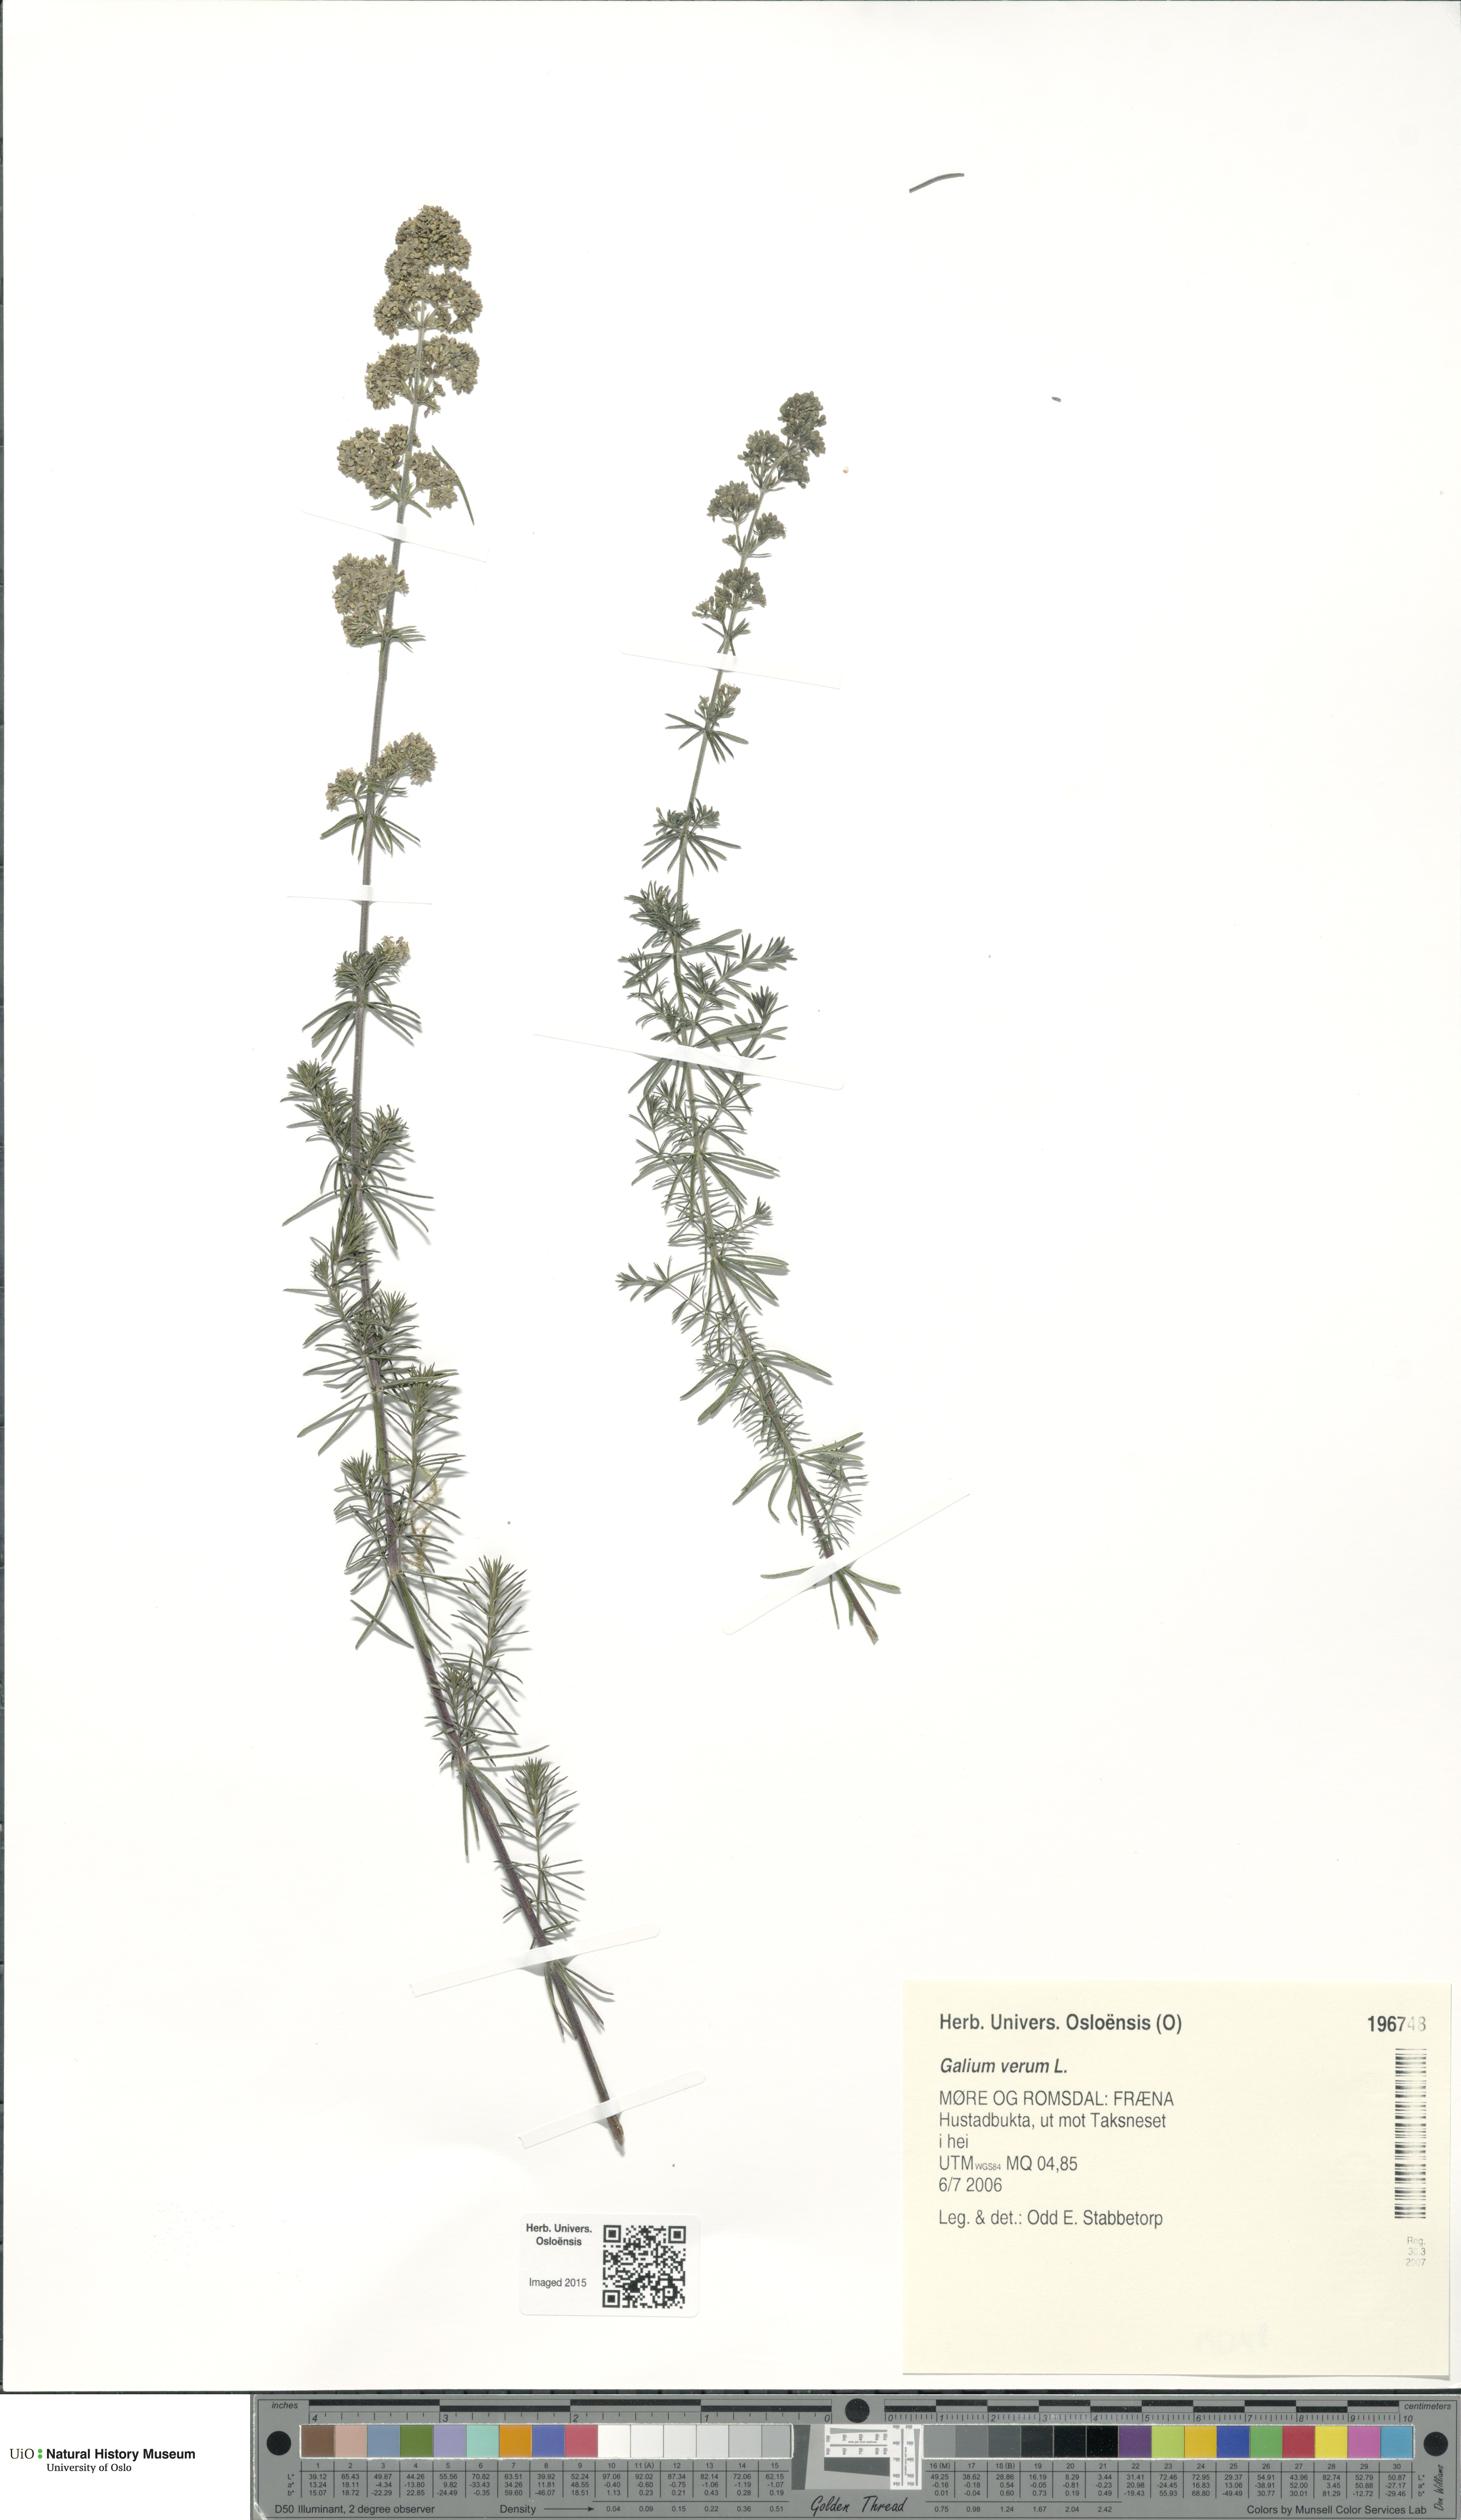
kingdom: Plantae
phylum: Tracheophyta
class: Magnoliopsida
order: Gentianales
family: Rubiaceae
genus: Galium
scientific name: Galium verum
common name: Lady's bedstraw
